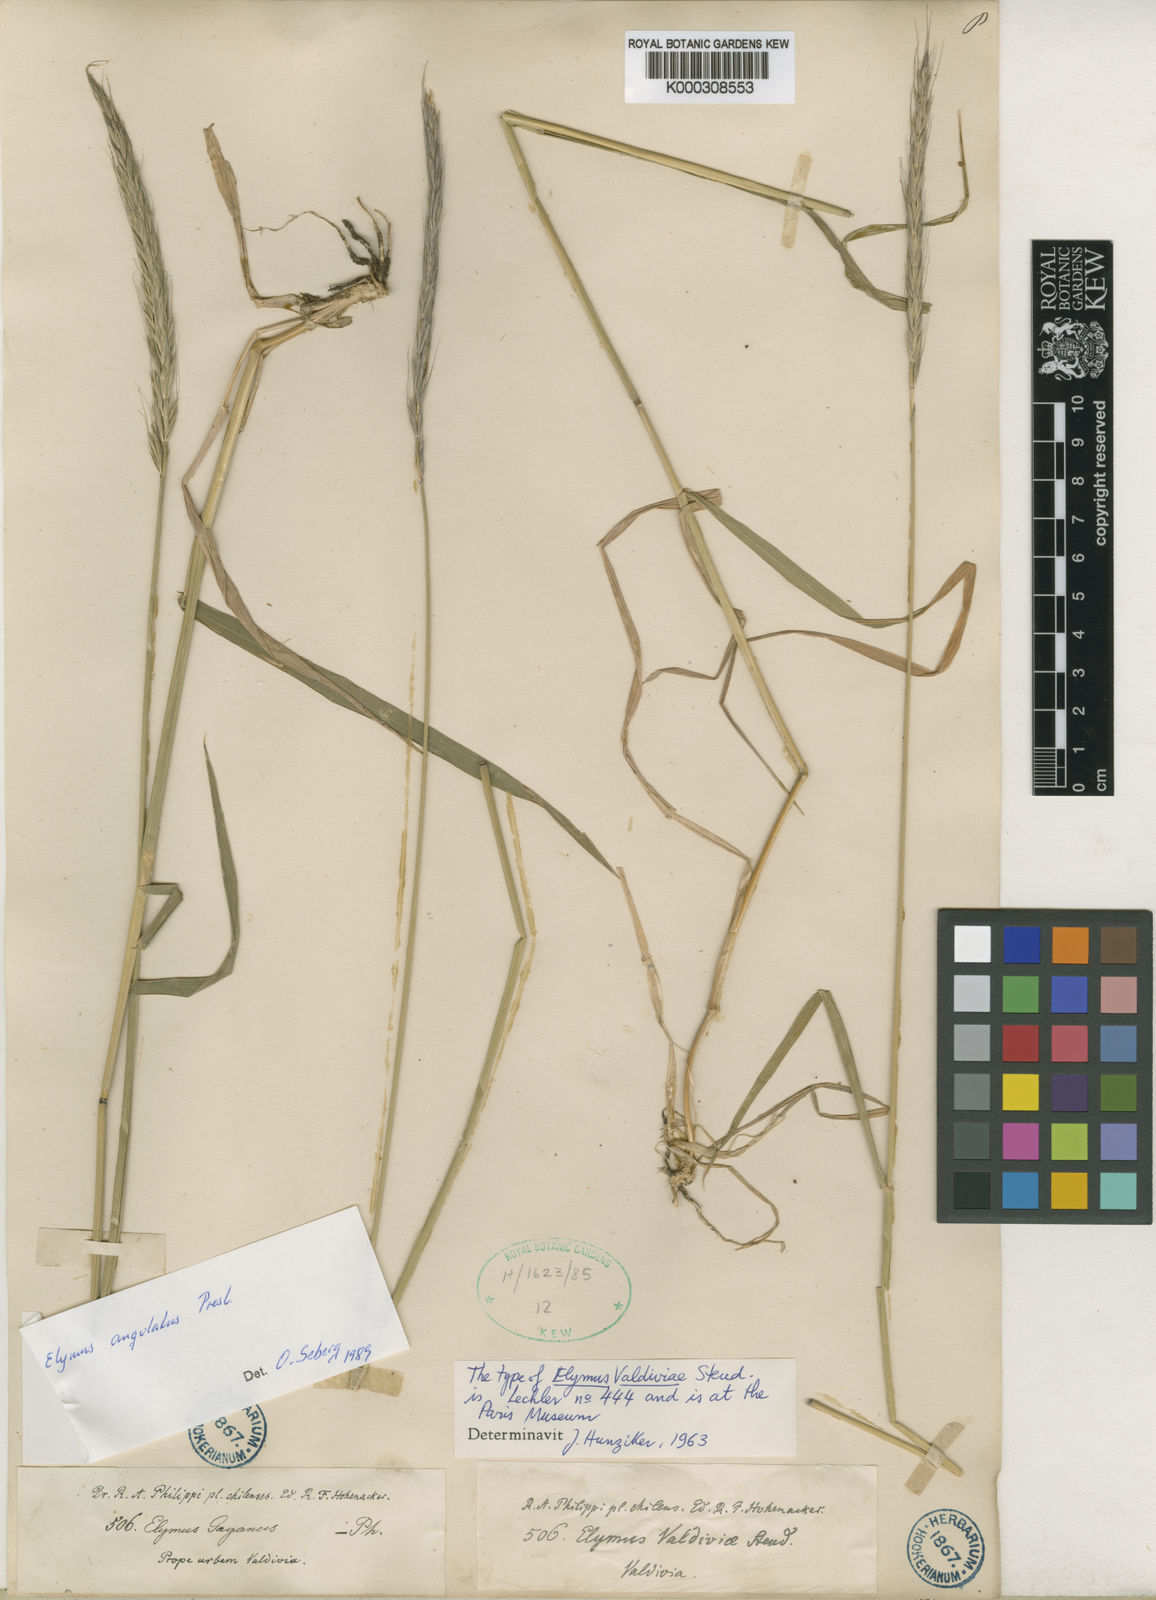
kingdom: Plantae
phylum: Tracheophyta
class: Liliopsida
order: Poales
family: Poaceae
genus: Elymus
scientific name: Elymus angulatus
